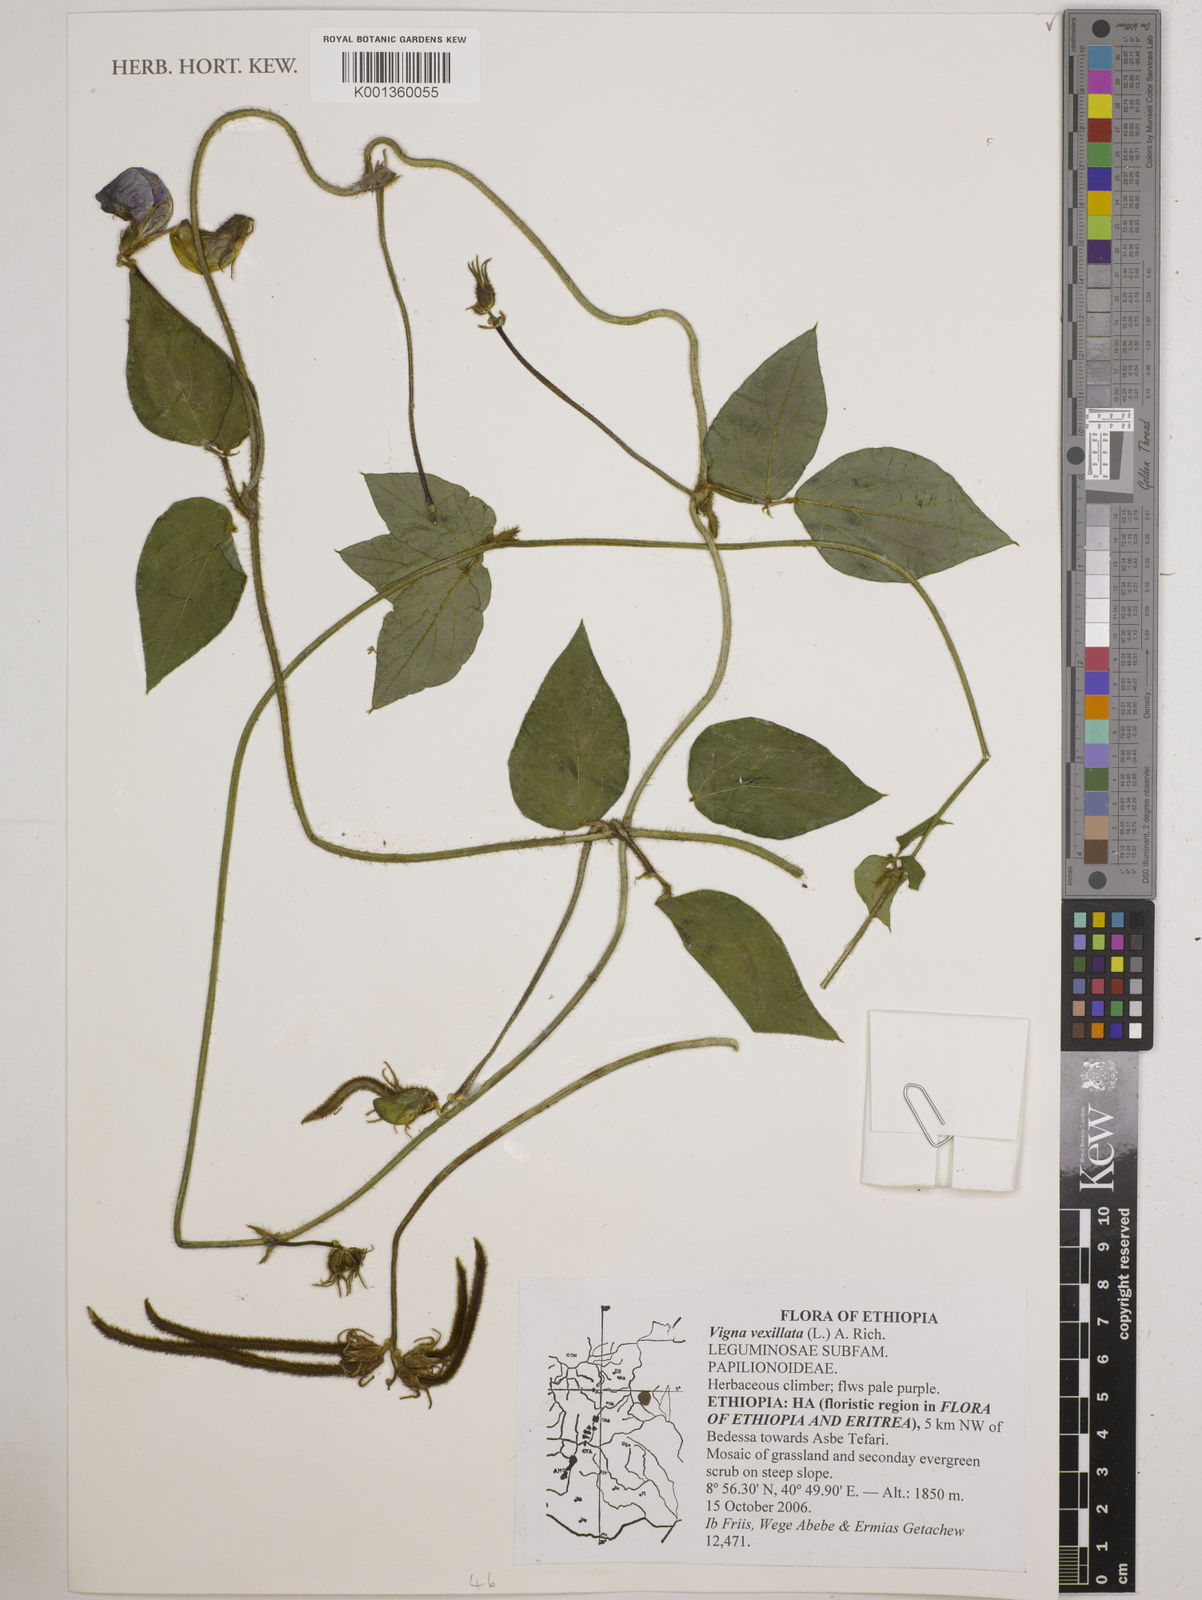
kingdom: Plantae
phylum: Tracheophyta
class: Magnoliopsida
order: Fabales
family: Fabaceae
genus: Vigna
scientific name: Vigna vexillata
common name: Zombi pea
